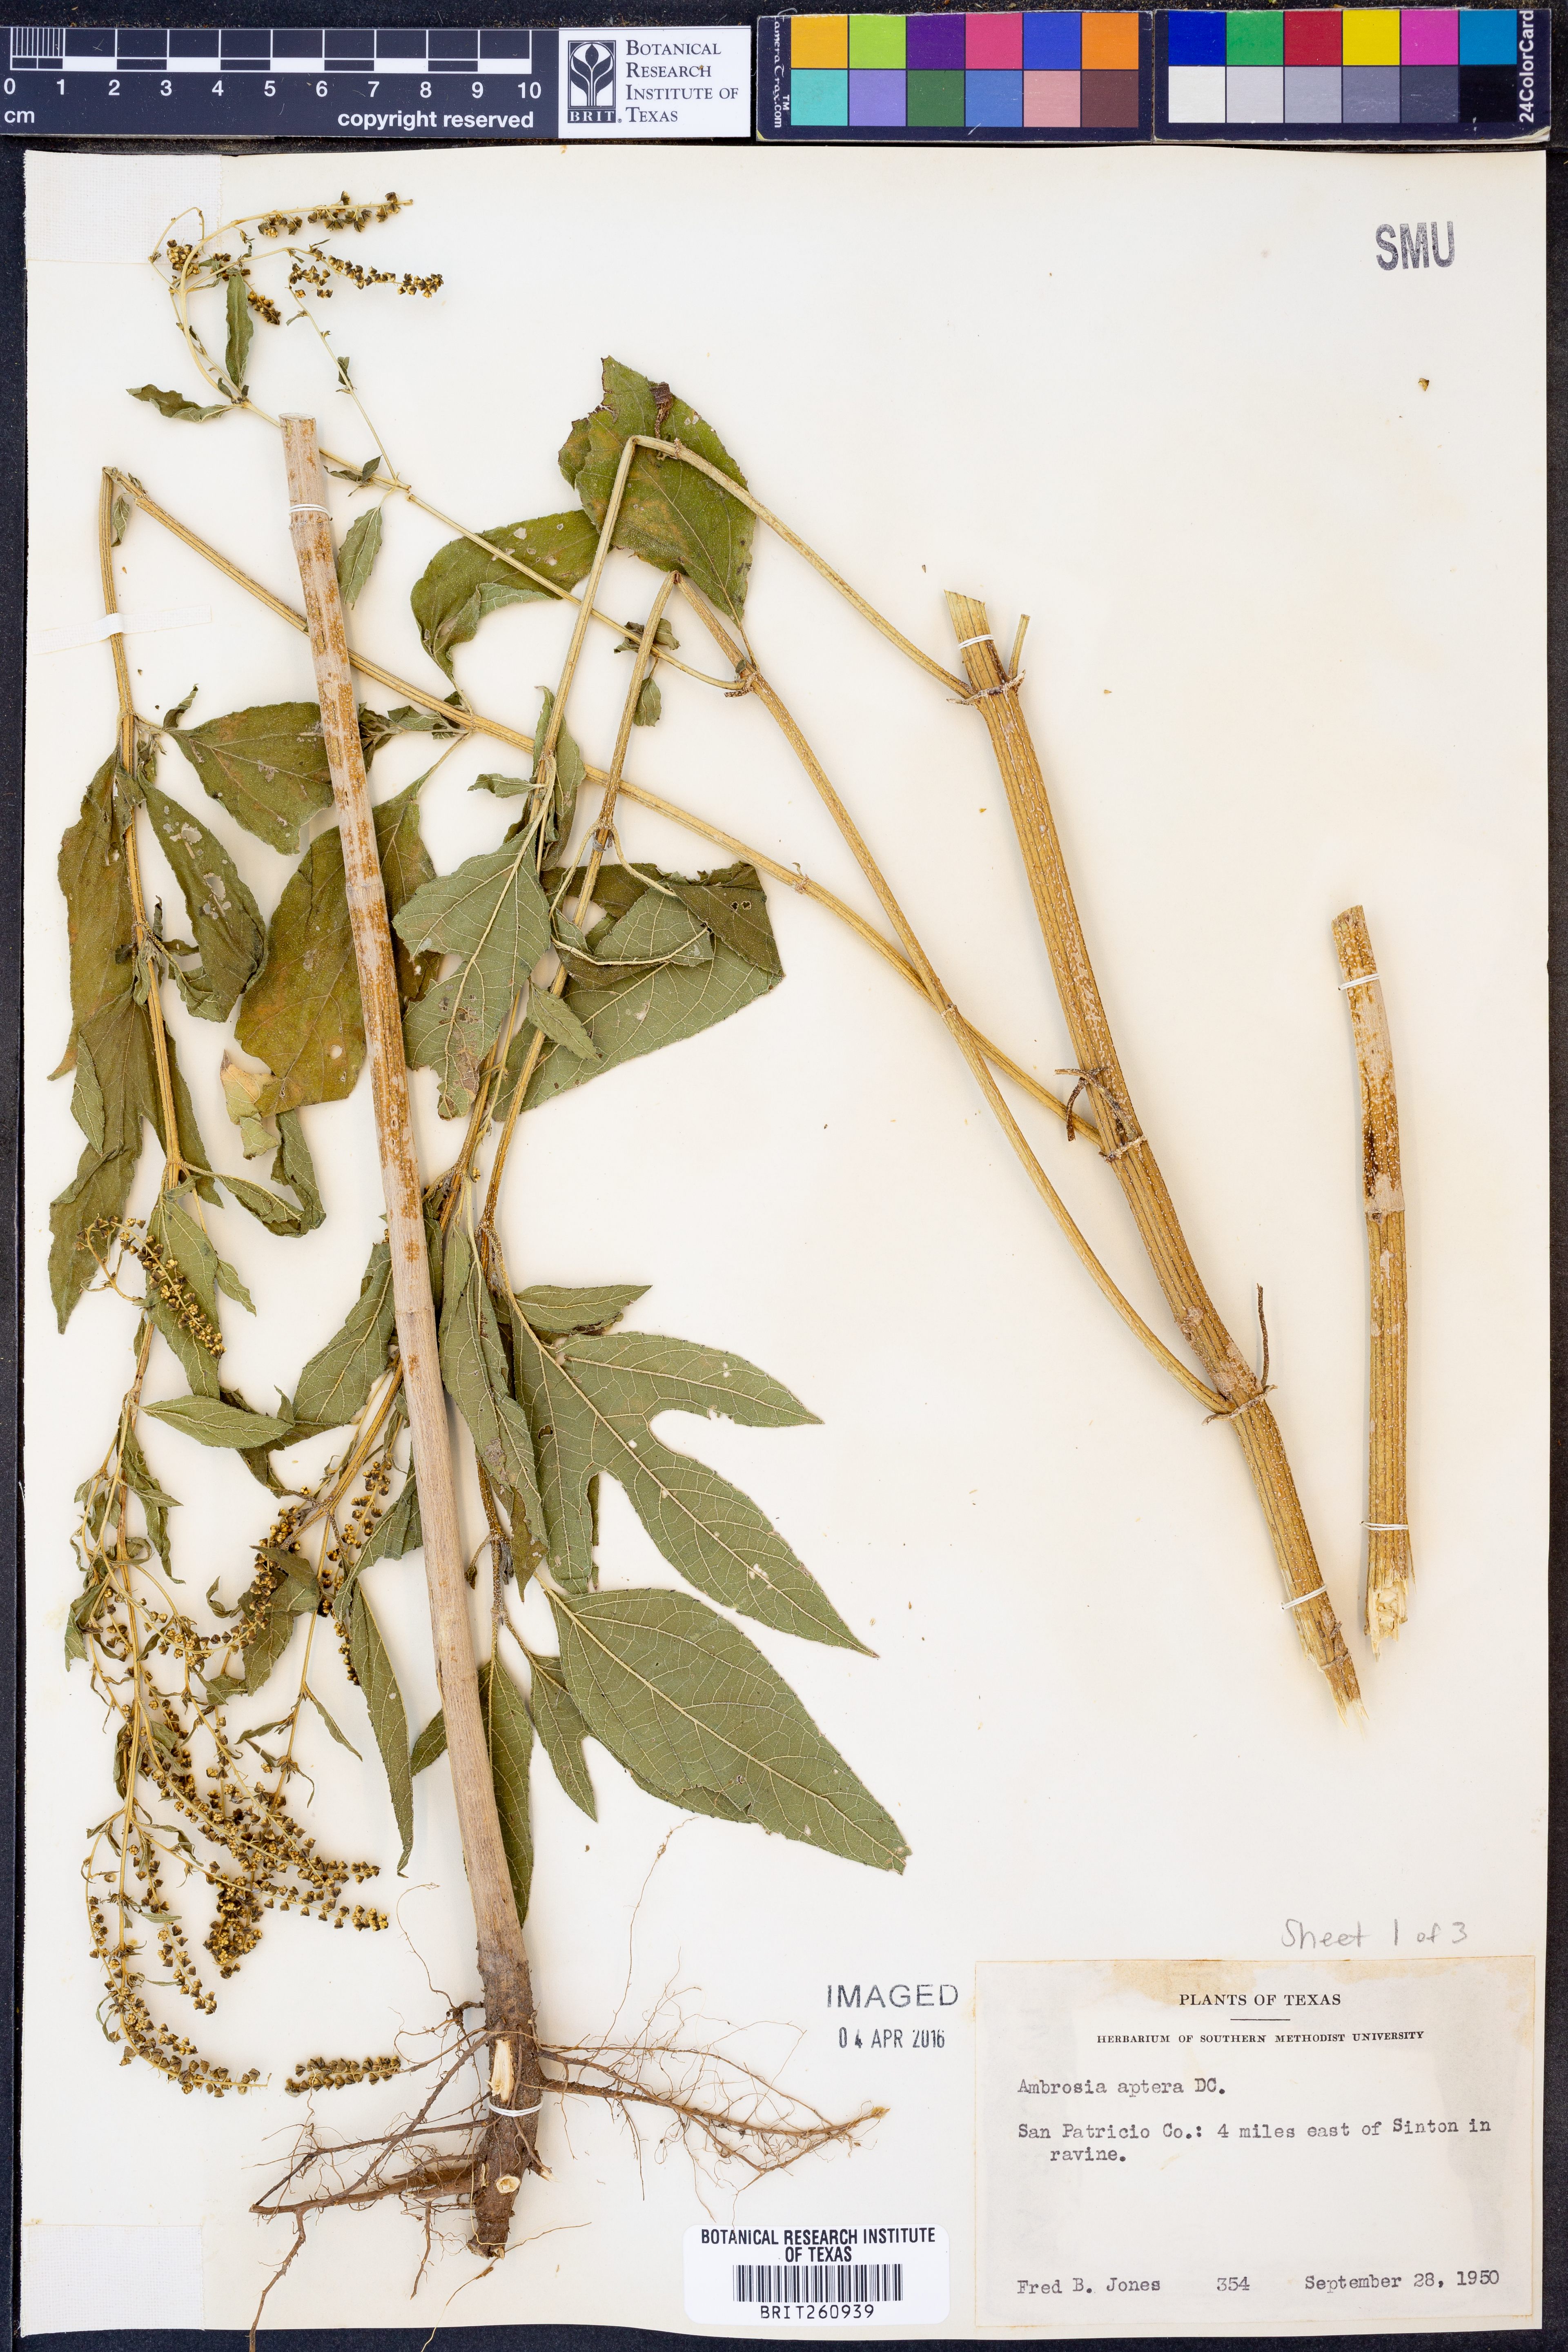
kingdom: Plantae
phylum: Tracheophyta
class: Magnoliopsida
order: Asterales
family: Asteraceae
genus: Ambrosia
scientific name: Ambrosia trifida
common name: Giant ragweed
